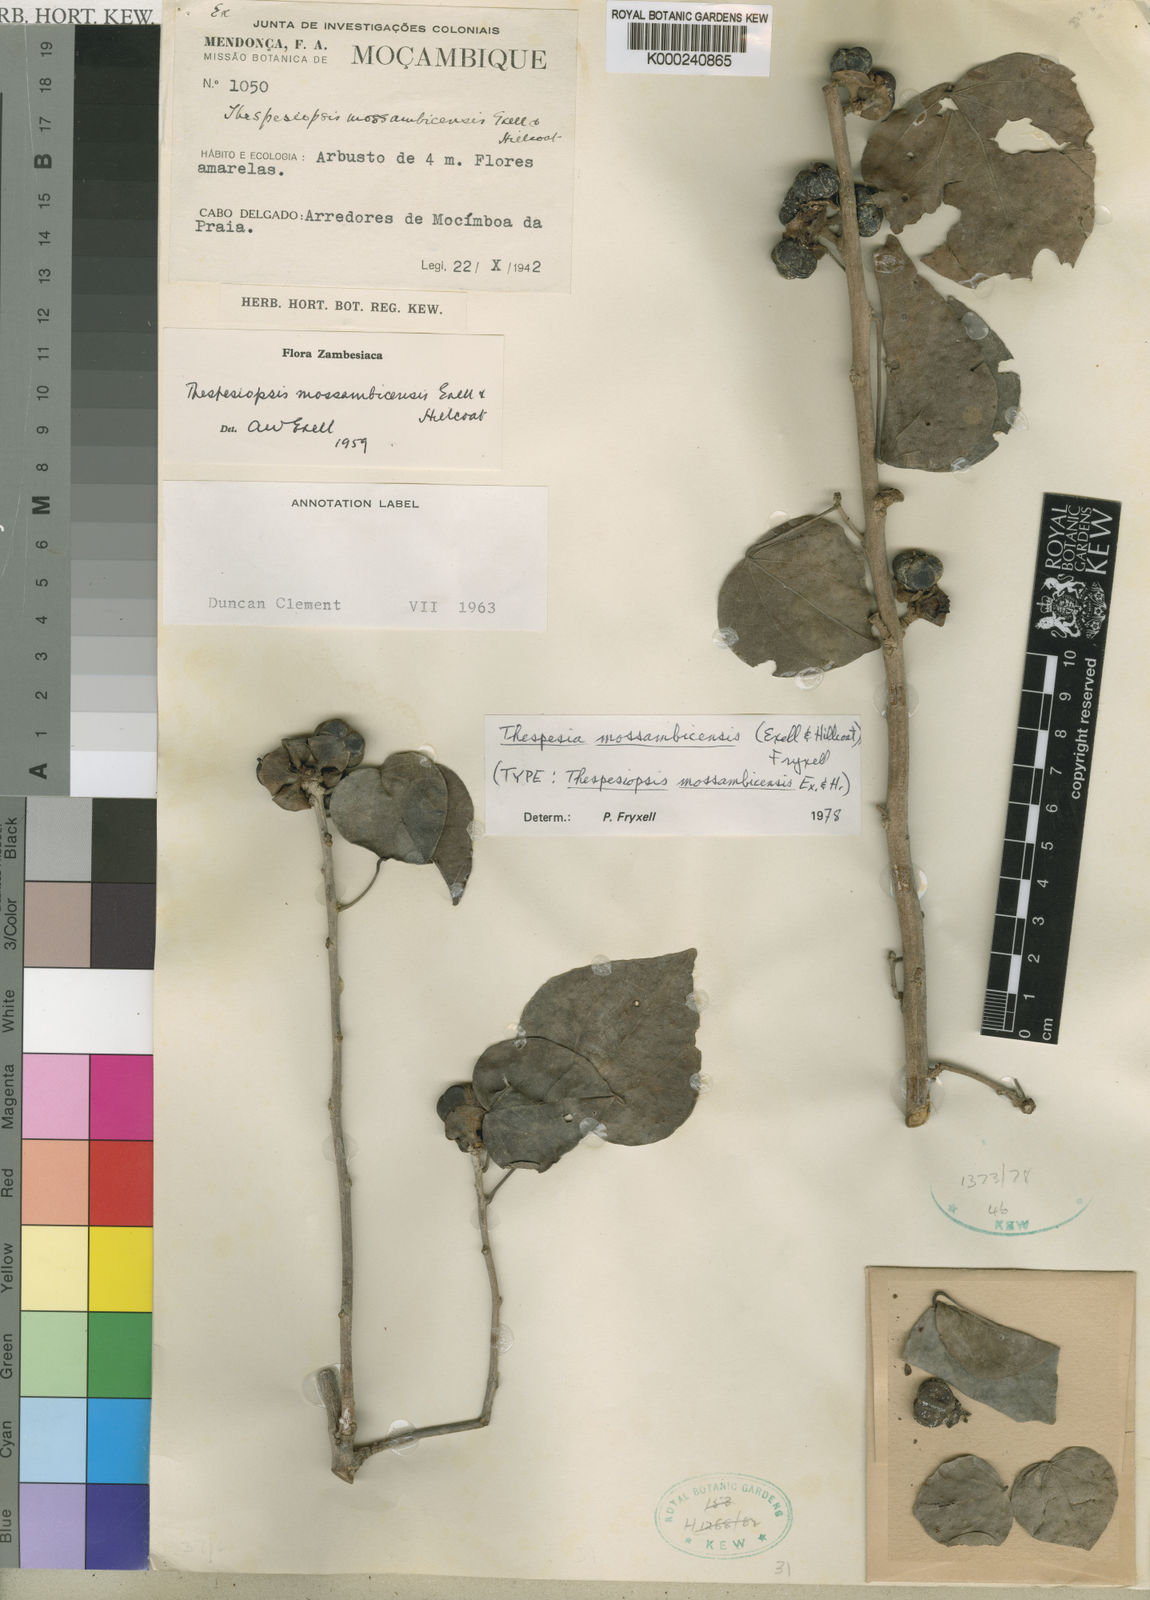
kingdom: Plantae
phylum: Tracheophyta
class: Magnoliopsida
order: Malvales
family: Malvaceae
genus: Thespesia
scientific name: Thespesia mossambicensis
